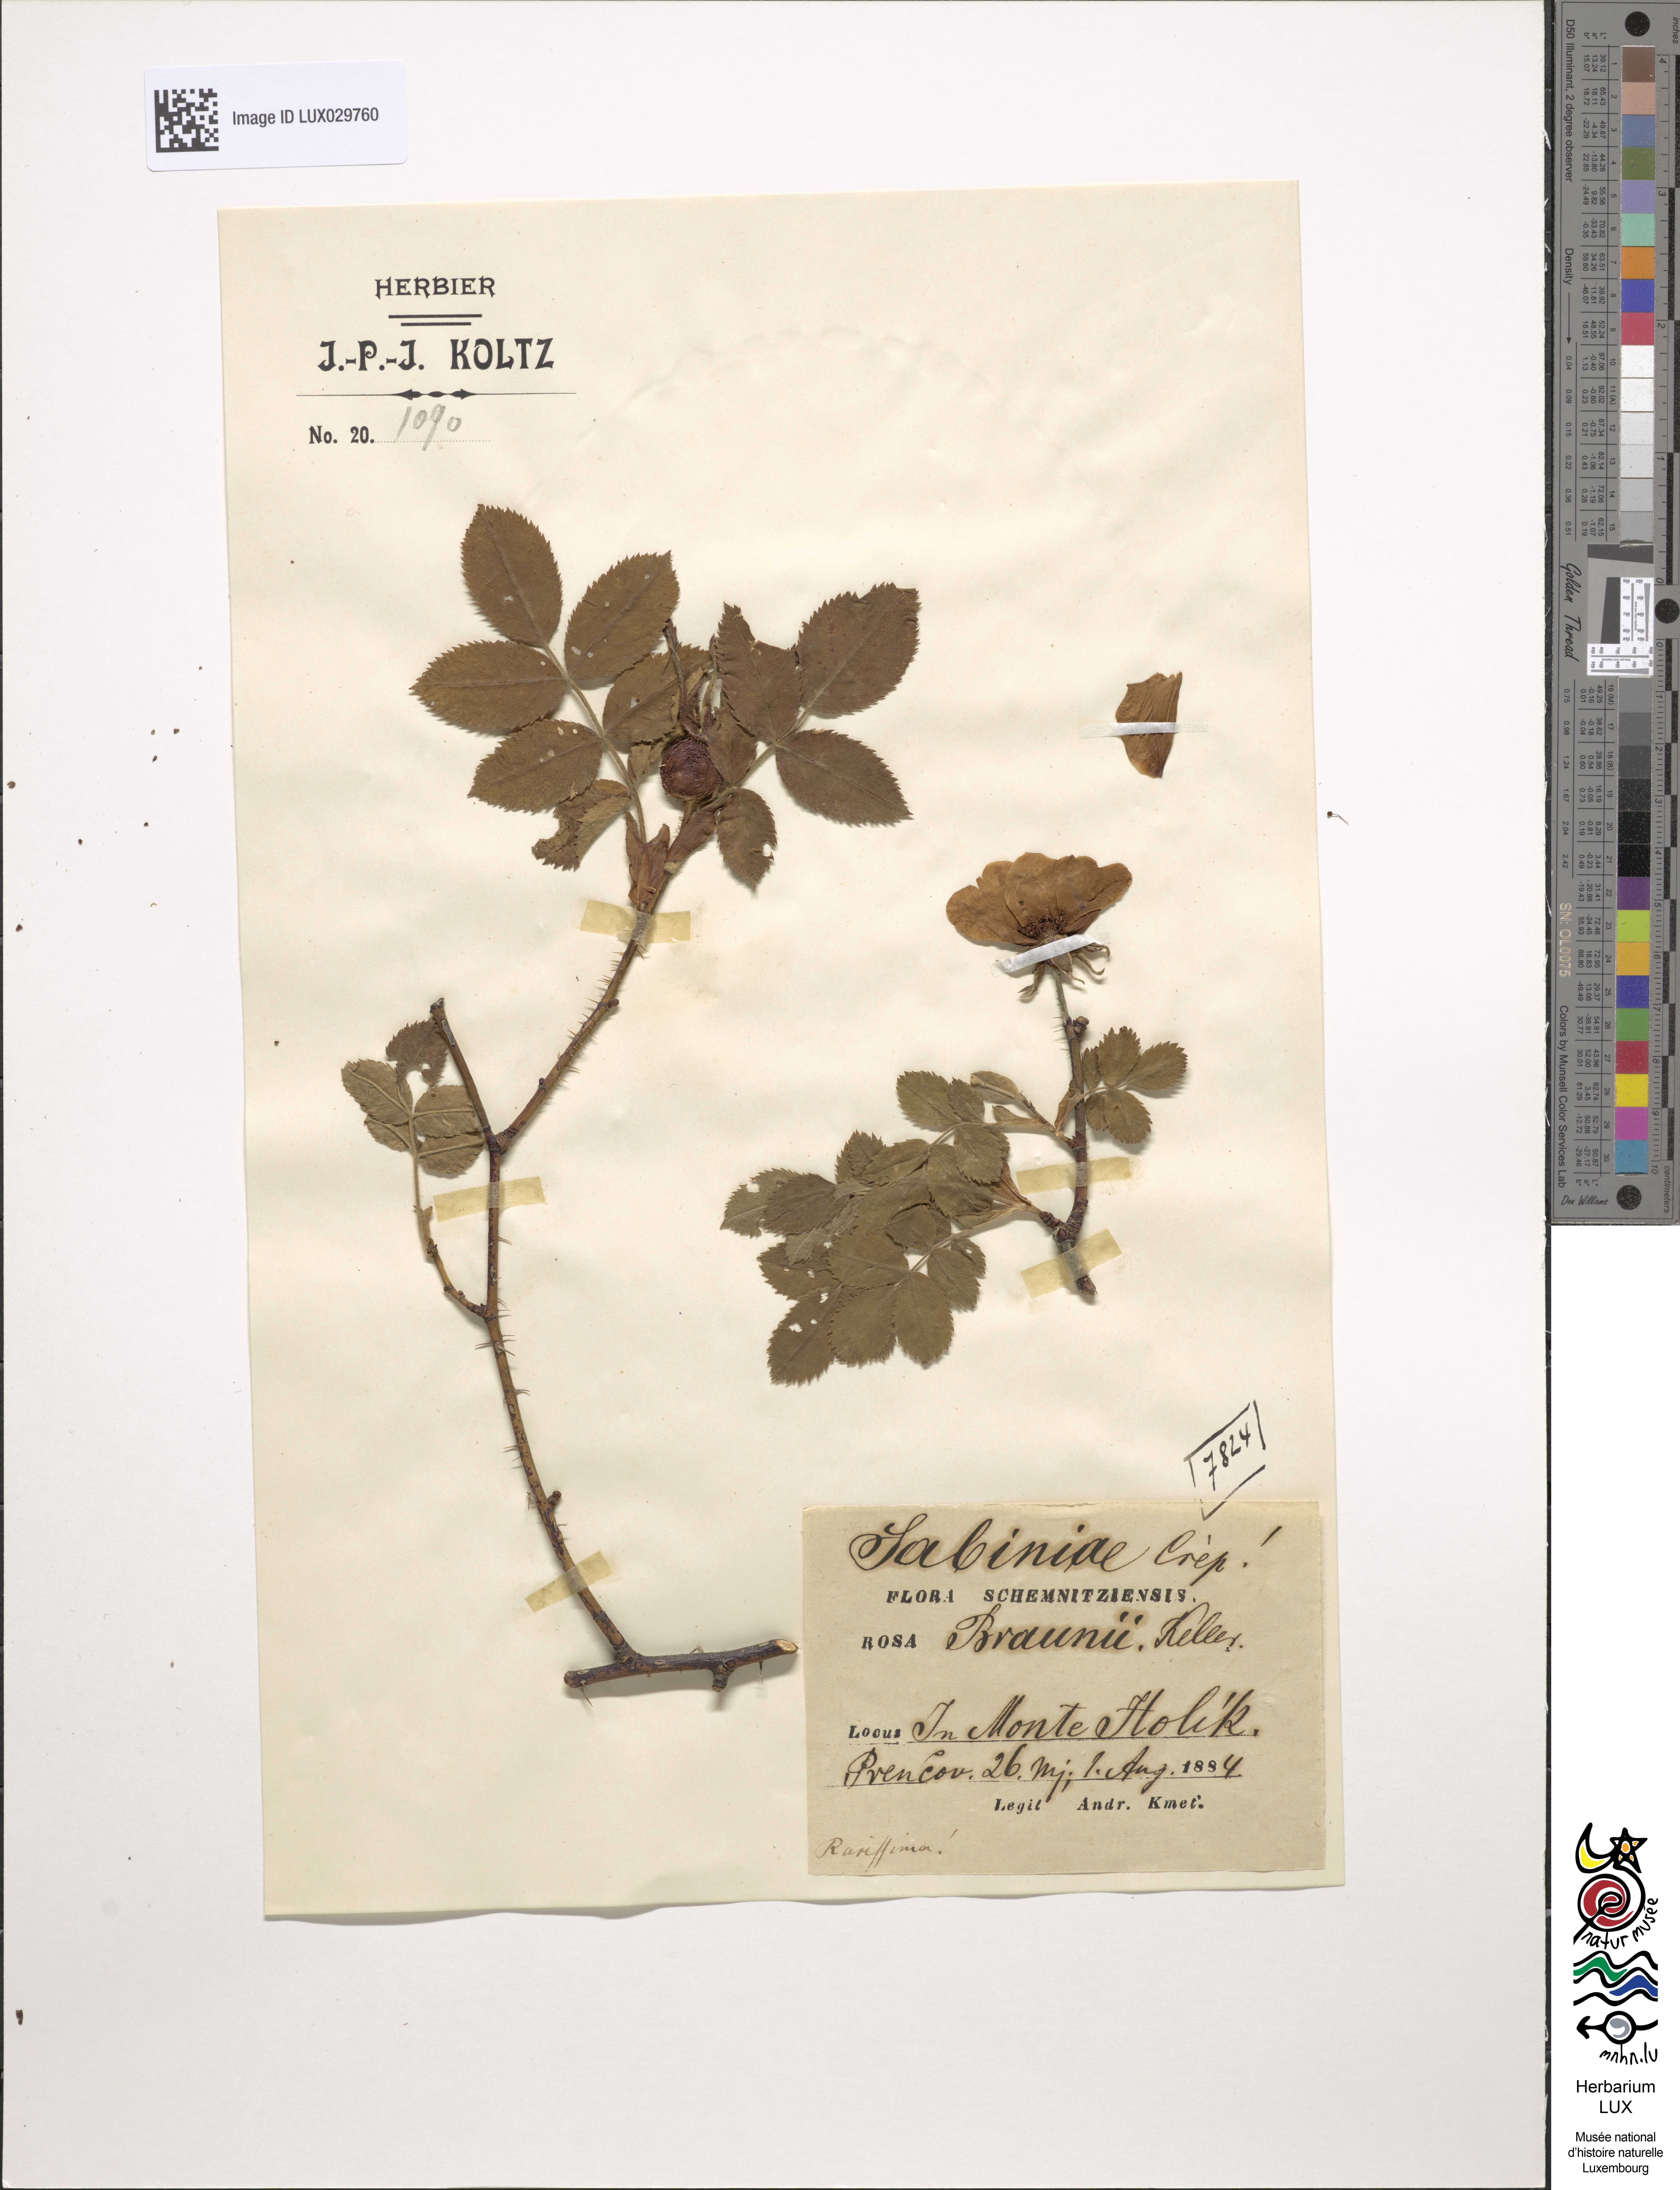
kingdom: Plantae
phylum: Tracheophyta
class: Magnoliopsida
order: Rosales
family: Rosaceae
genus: Rosa
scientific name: Rosa rubiginosa
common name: Sweet-briar
